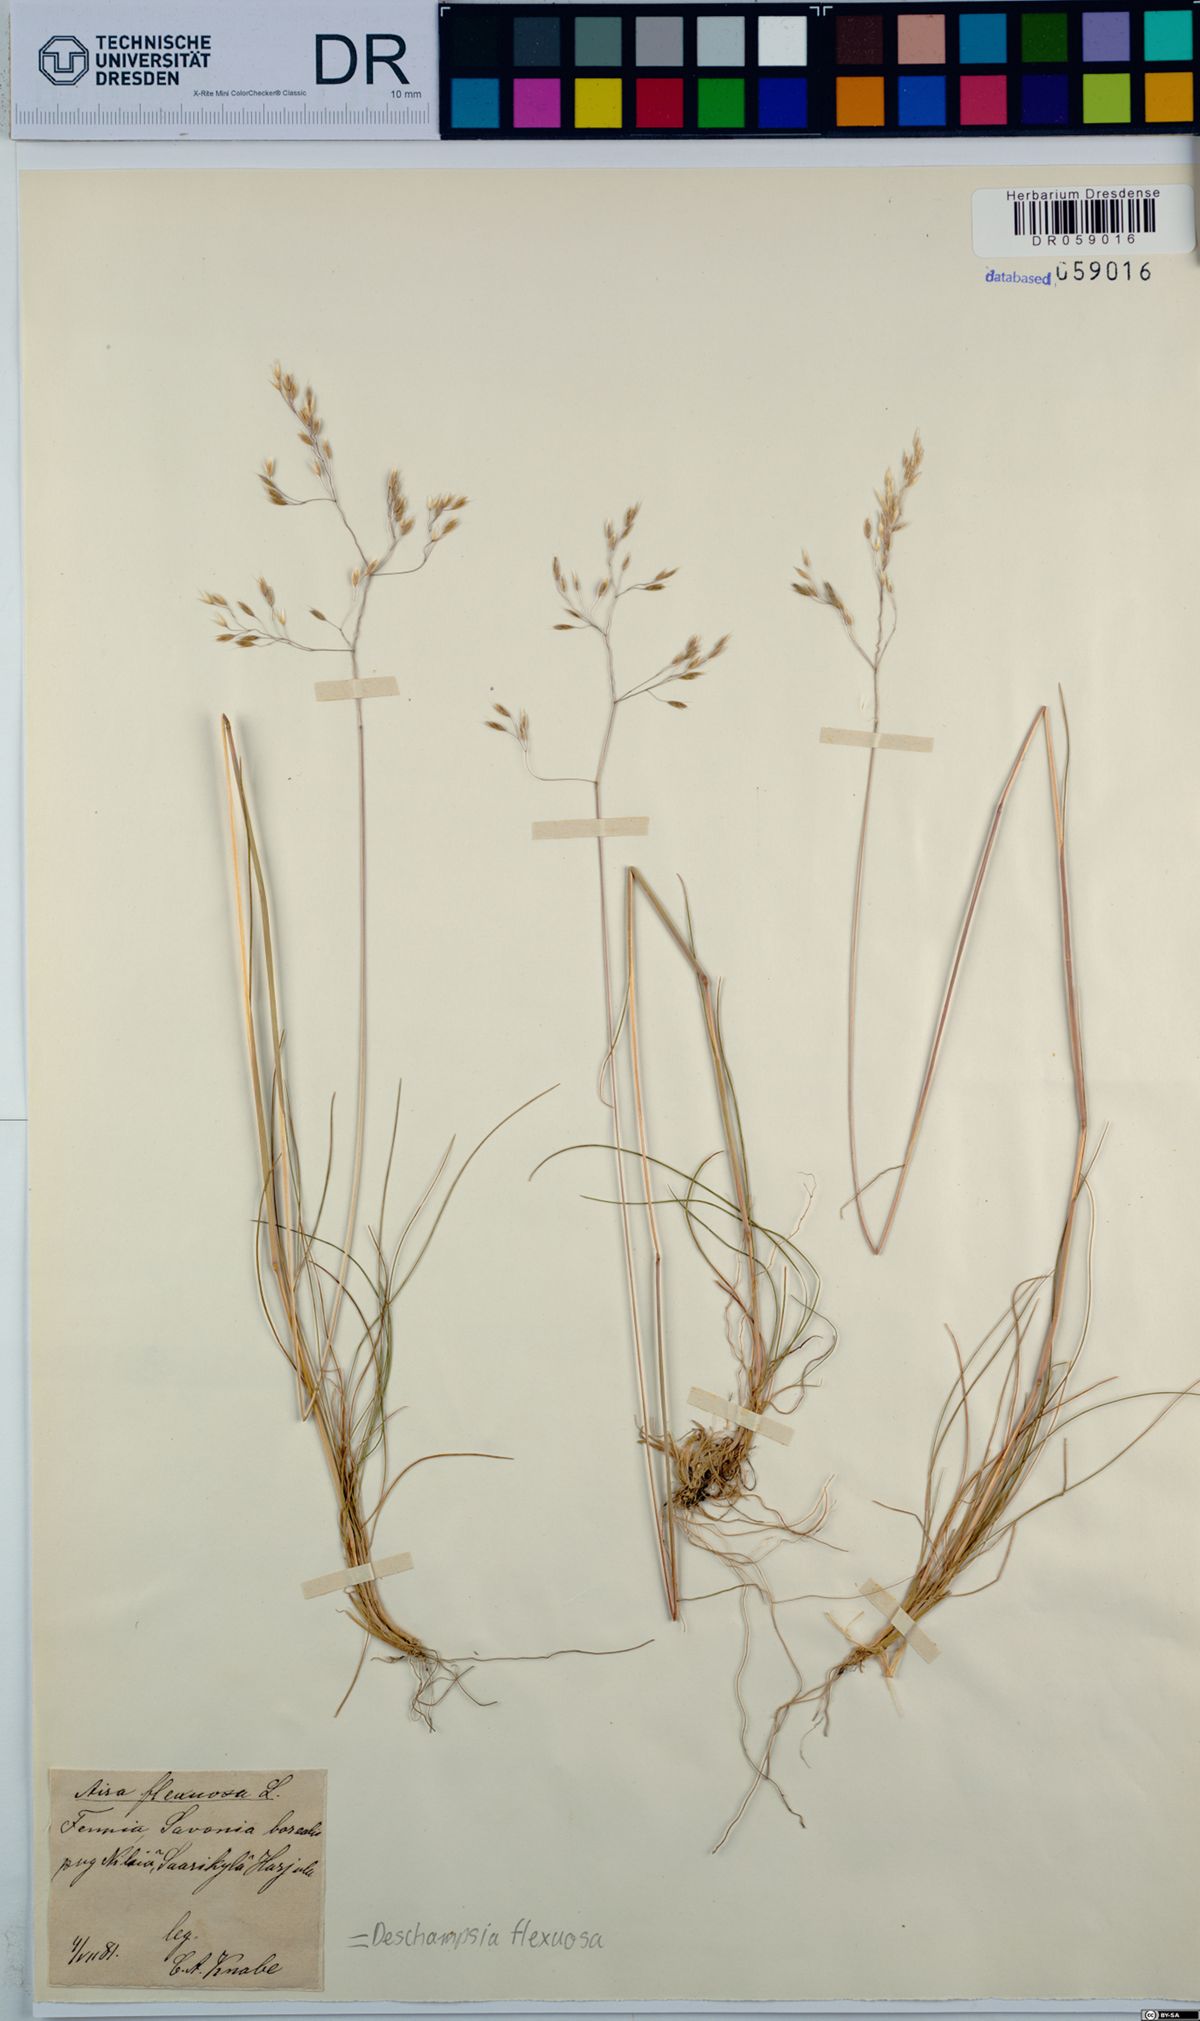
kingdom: Plantae
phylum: Tracheophyta
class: Liliopsida
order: Poales
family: Poaceae
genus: Avenella
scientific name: Avenella flexuosa
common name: Wavy hairgrass
